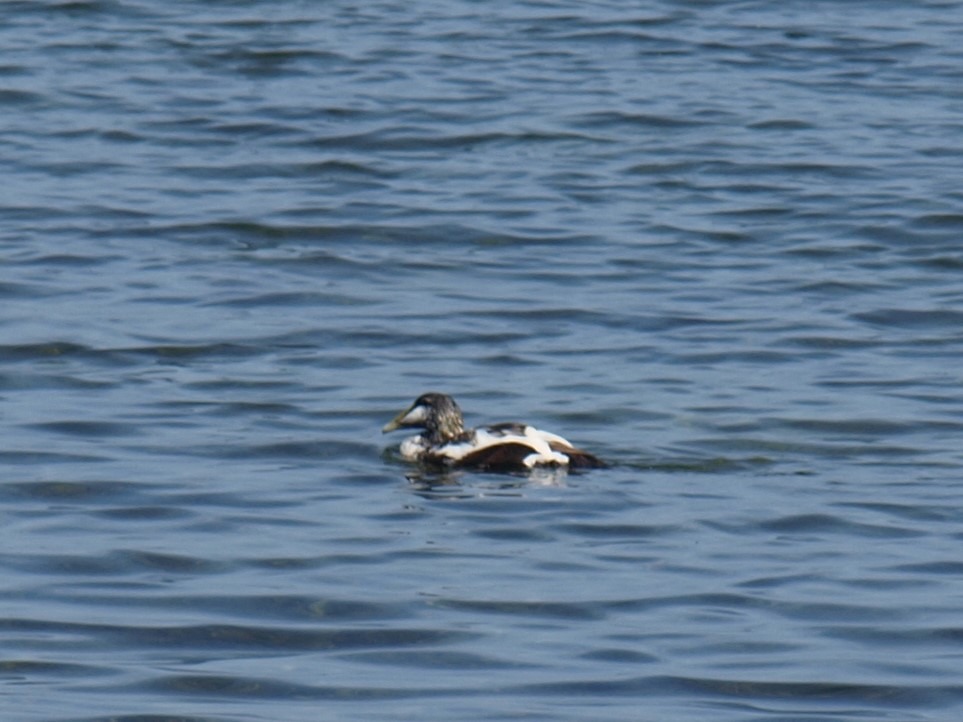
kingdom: Animalia
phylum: Chordata
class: Aves
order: Anseriformes
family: Anatidae
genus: Somateria
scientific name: Somateria mollissima
